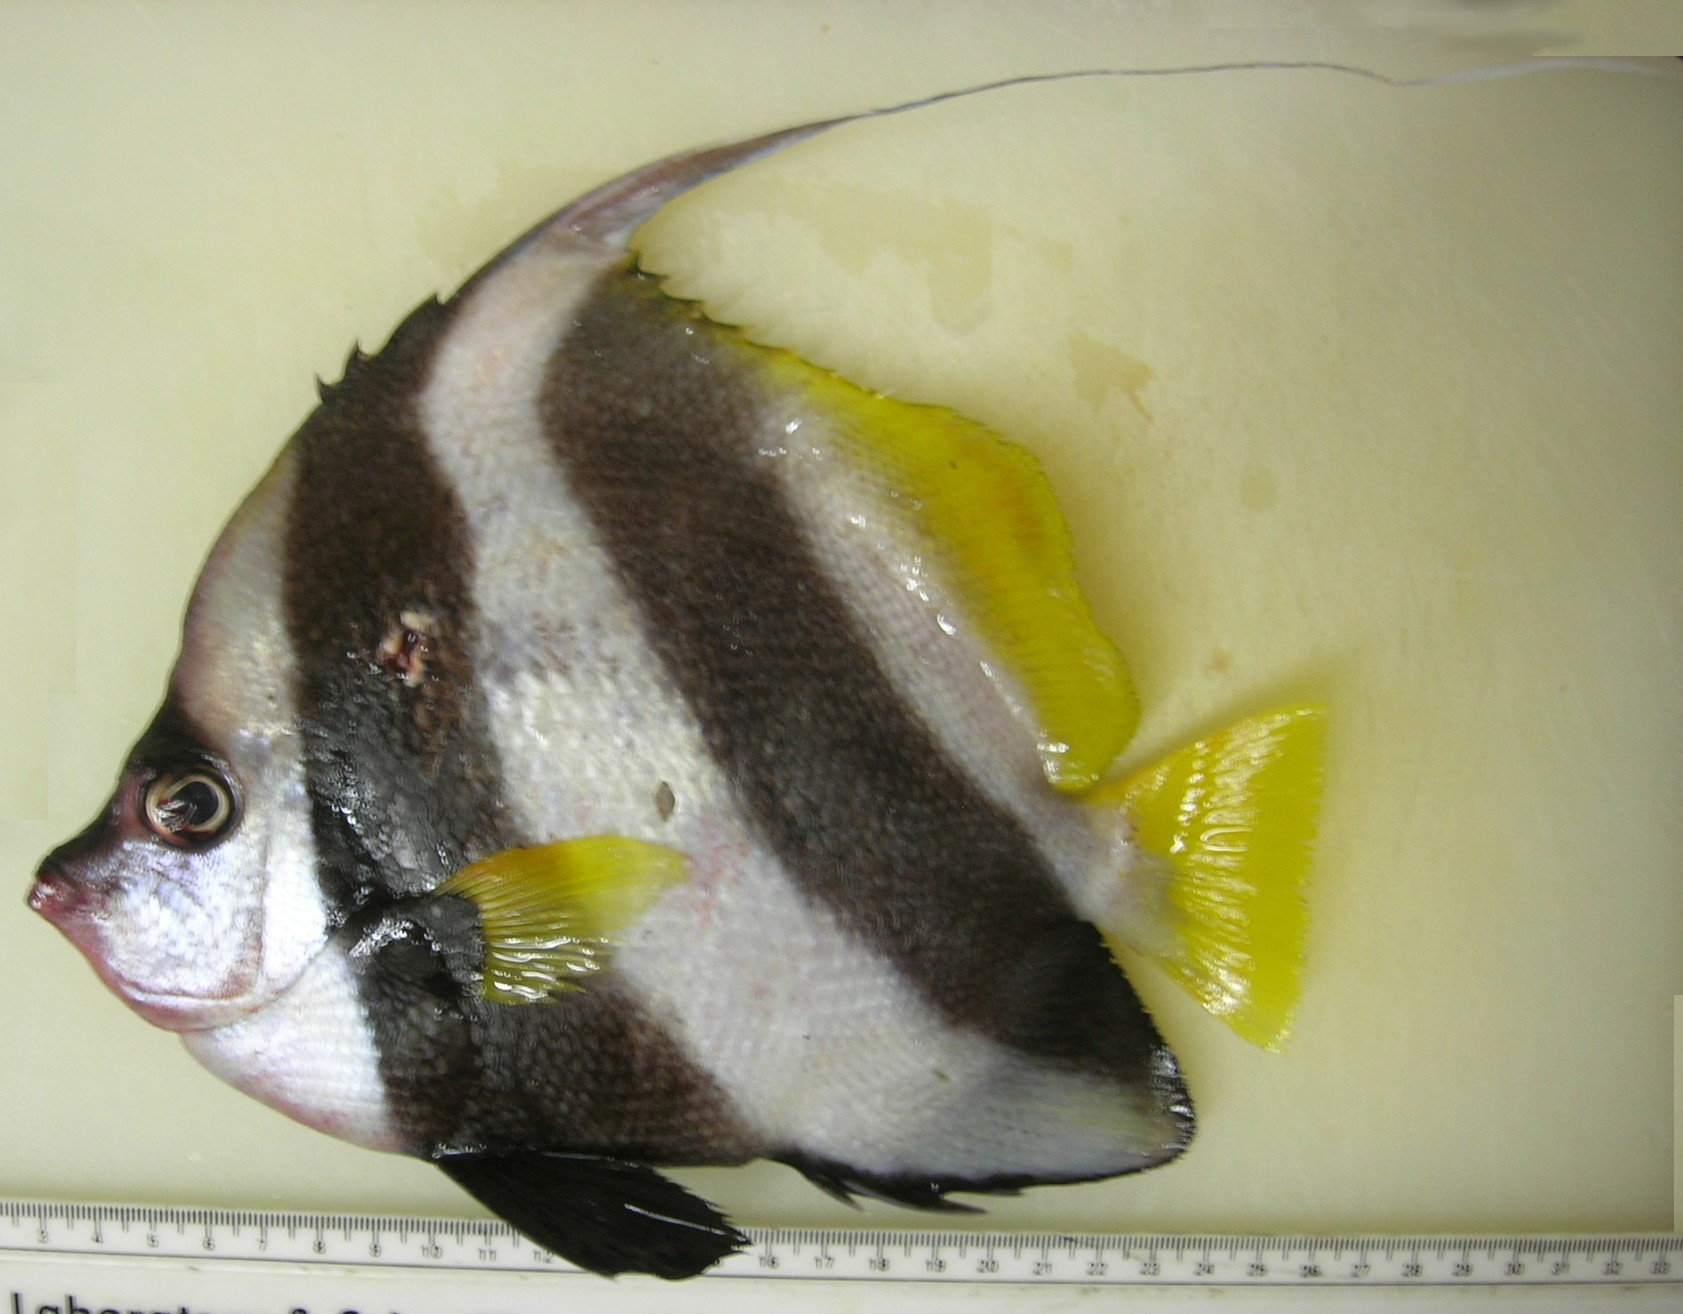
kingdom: Animalia
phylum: Chordata
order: Perciformes
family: Chaetodontidae
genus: Heniochus
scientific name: Heniochus acuminatus
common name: Pennant coralfish
